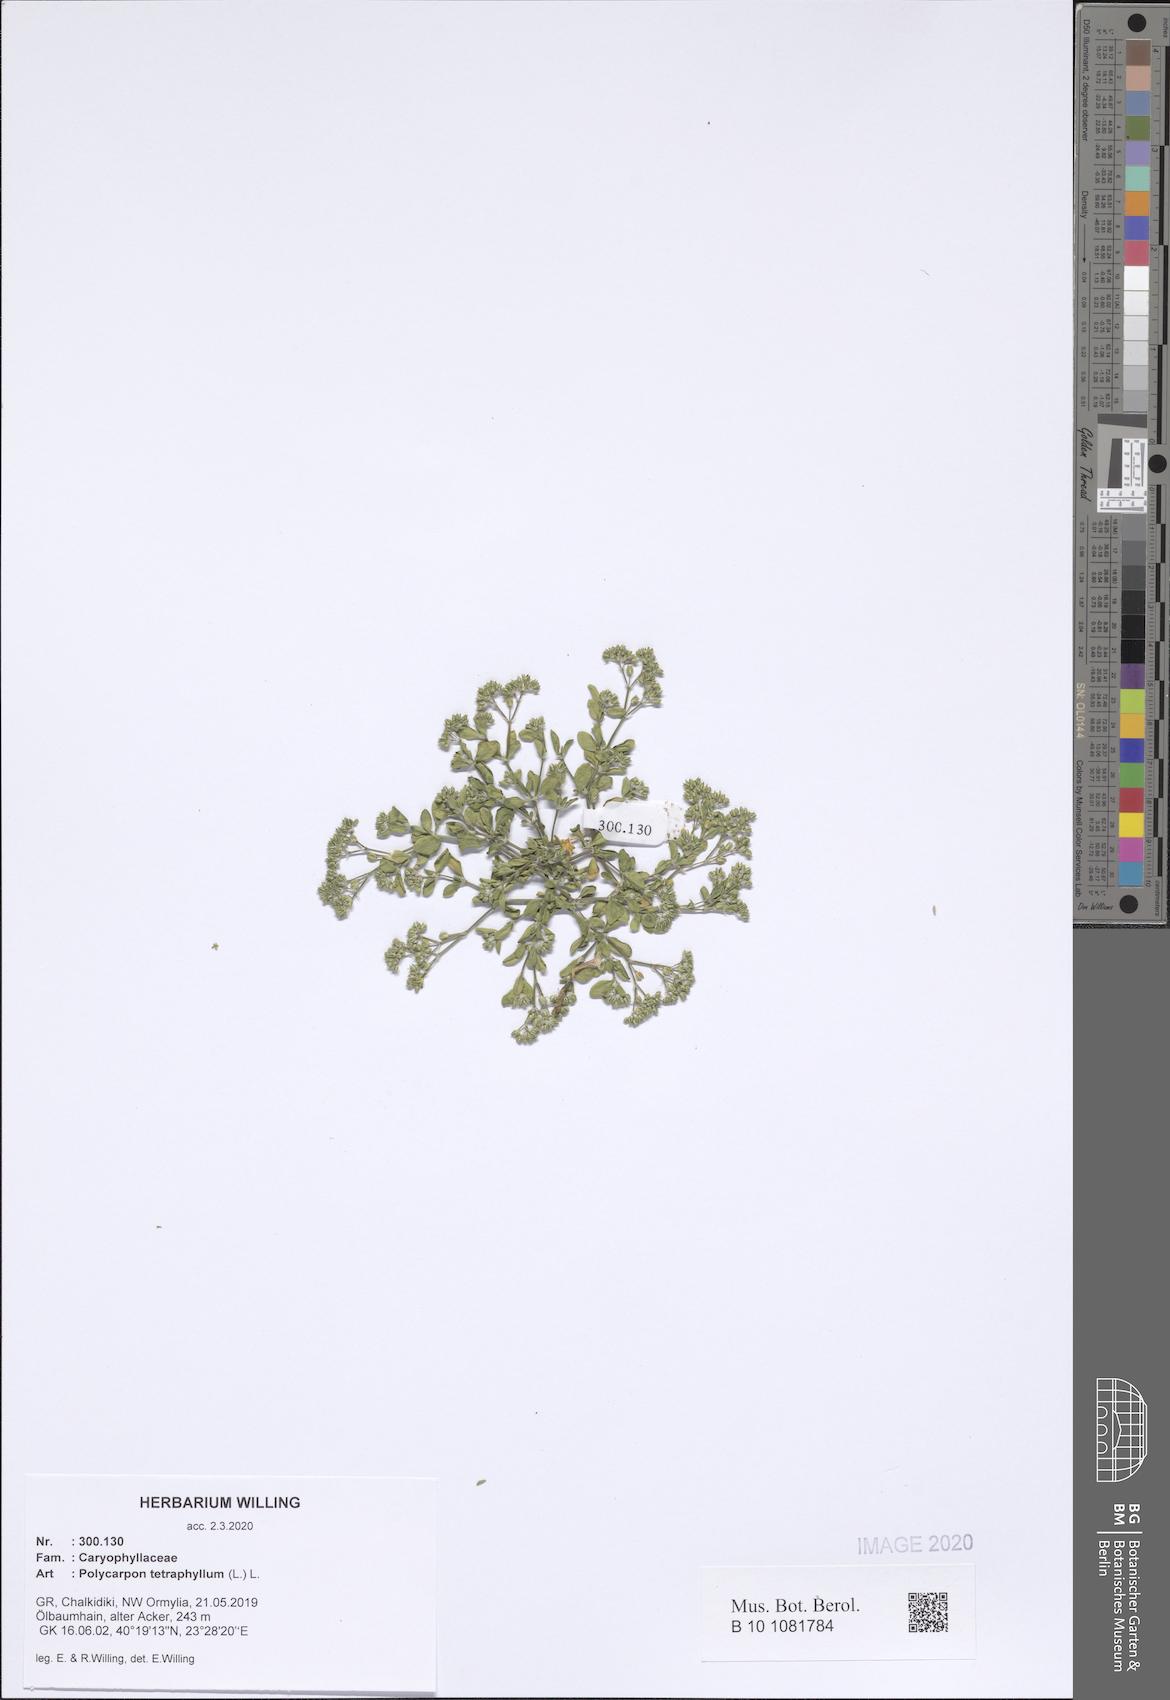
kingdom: Plantae
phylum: Tracheophyta
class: Magnoliopsida
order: Caryophyllales
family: Caryophyllaceae
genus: Polycarpon
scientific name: Polycarpon tetraphyllum
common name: Four-leaved all-seed
